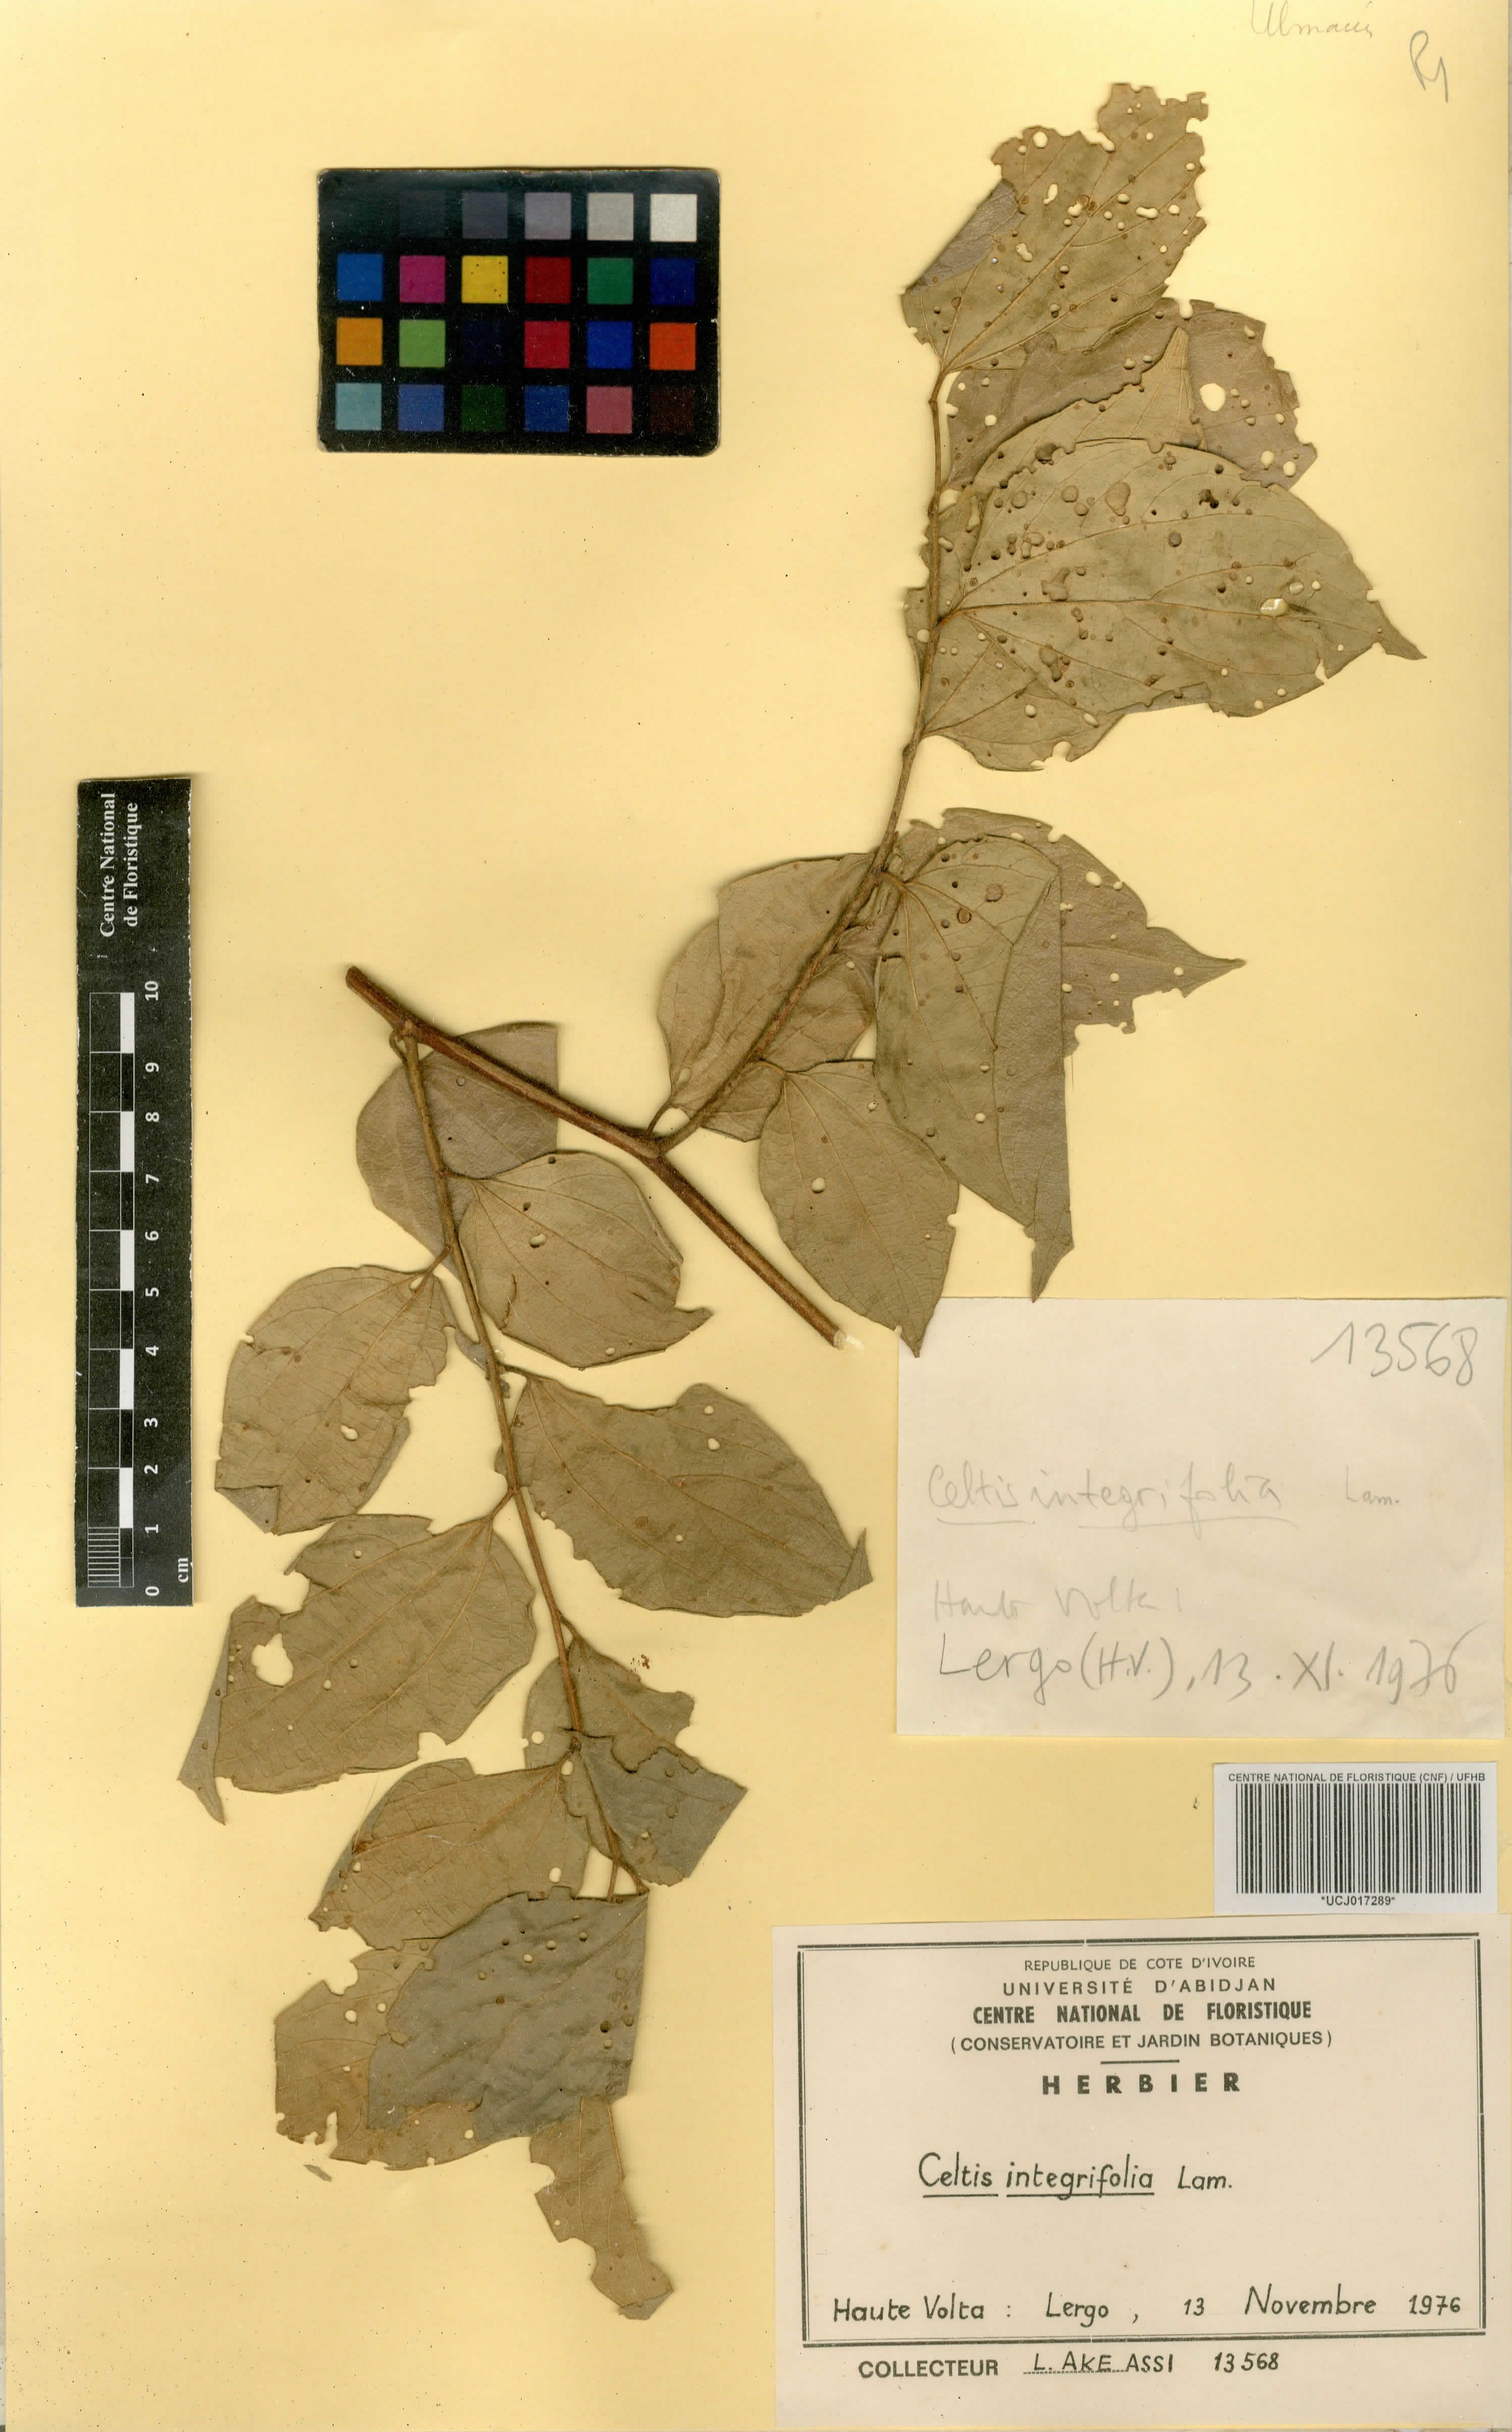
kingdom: Plantae
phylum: Tracheophyta
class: Magnoliopsida
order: Rosales
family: Cannabaceae
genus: Celtis
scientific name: Celtis toka
